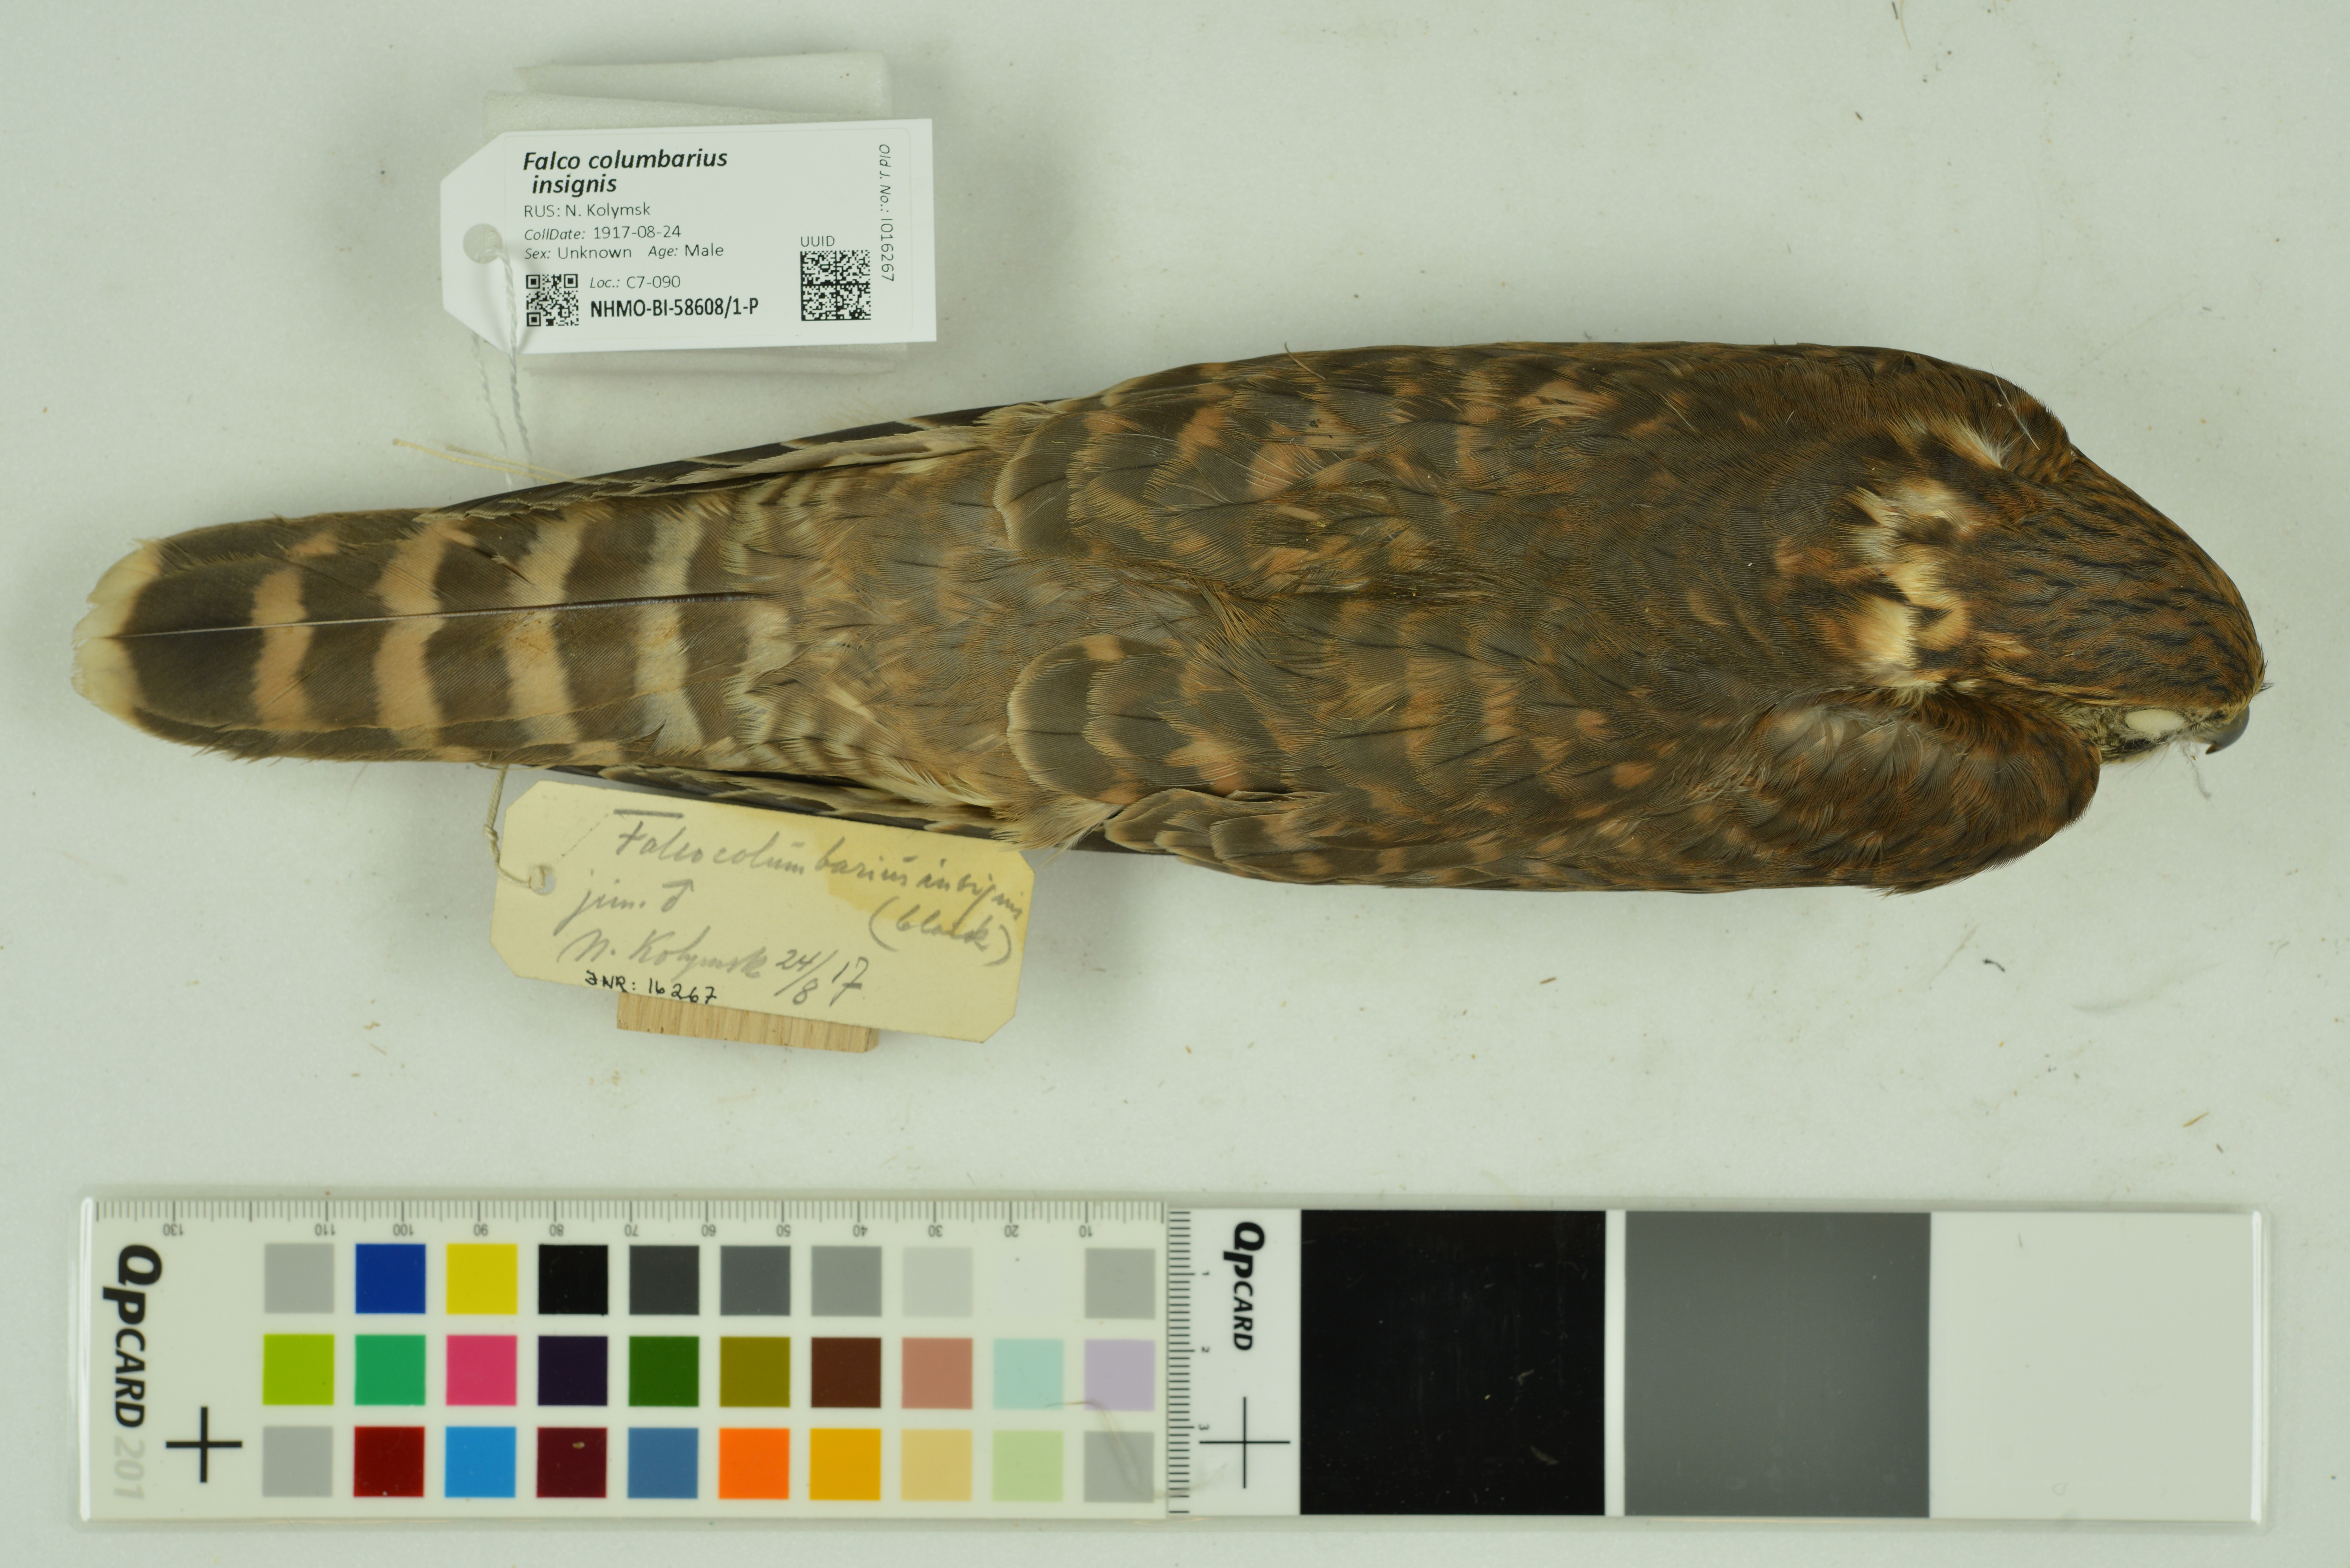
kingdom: Animalia
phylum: Chordata
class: Aves
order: Falconiformes
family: Falconidae
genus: Falco
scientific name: Falco columbarius
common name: Merlin
